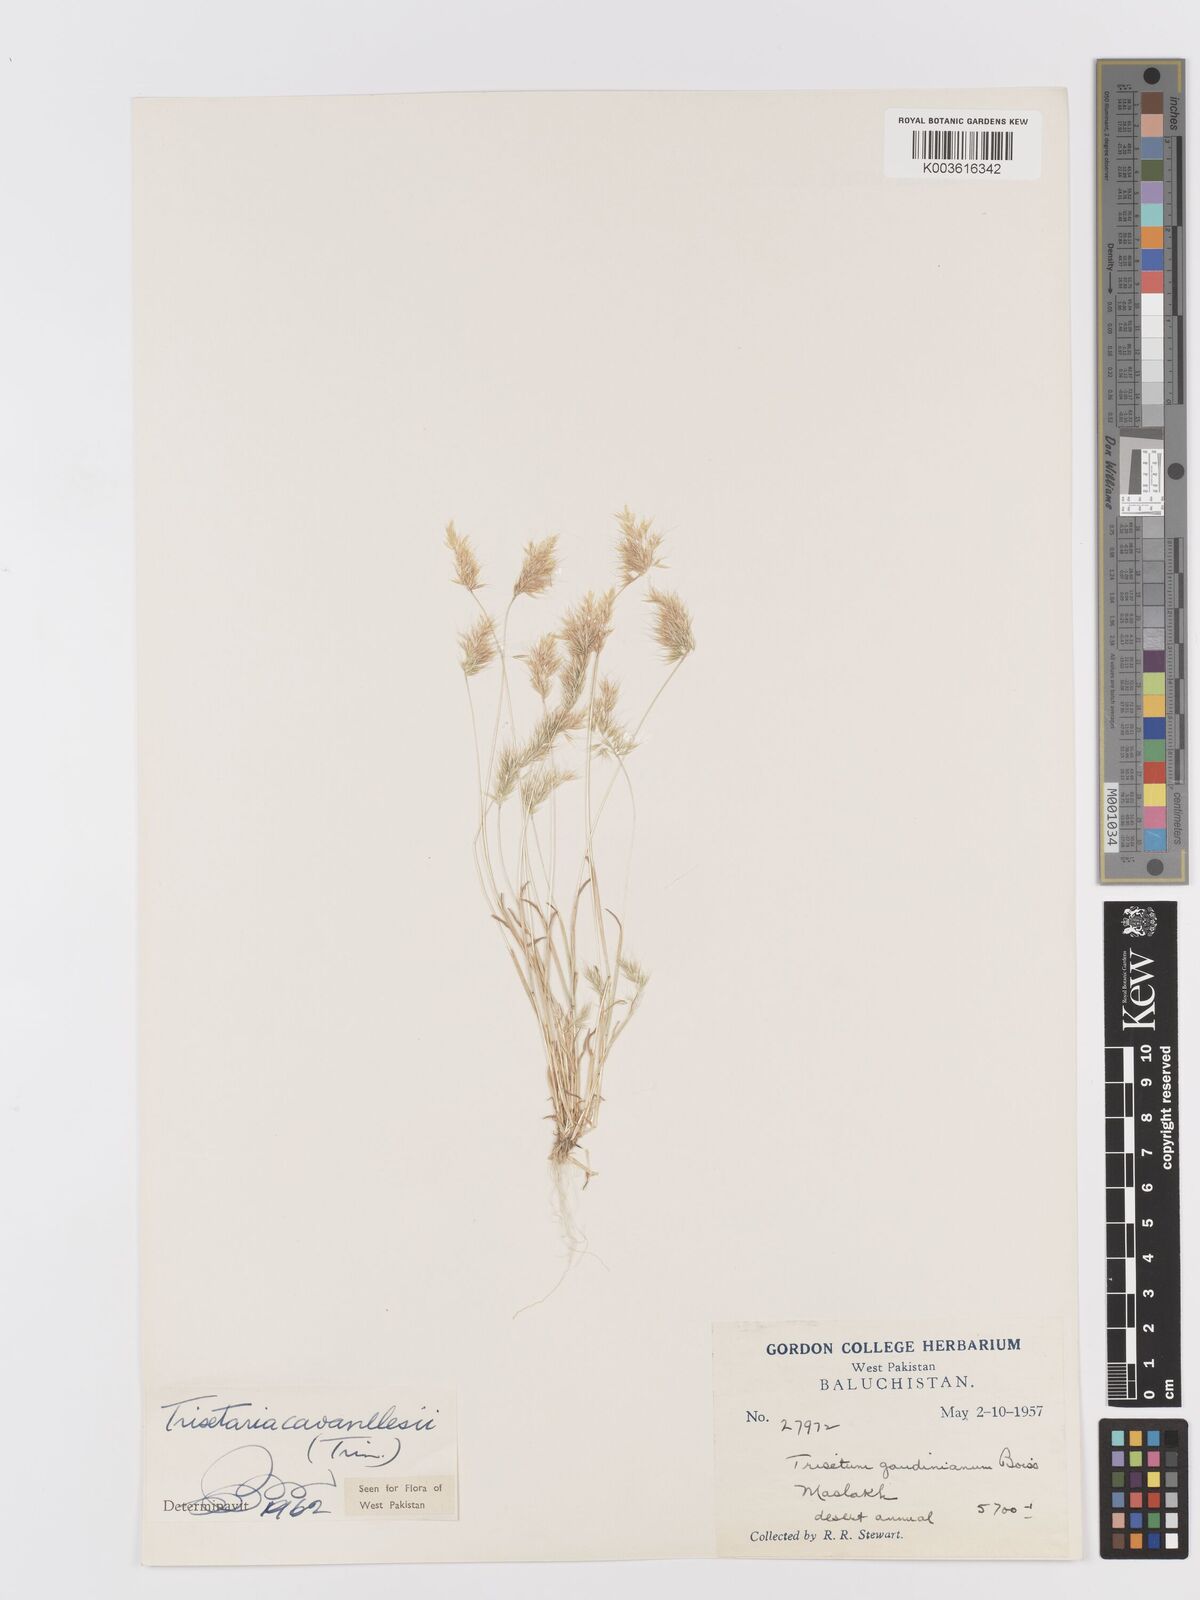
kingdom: Plantae
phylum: Tracheophyta
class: Liliopsida
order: Poales
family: Poaceae
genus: Trisetaria
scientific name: Trisetaria loeflingiana
